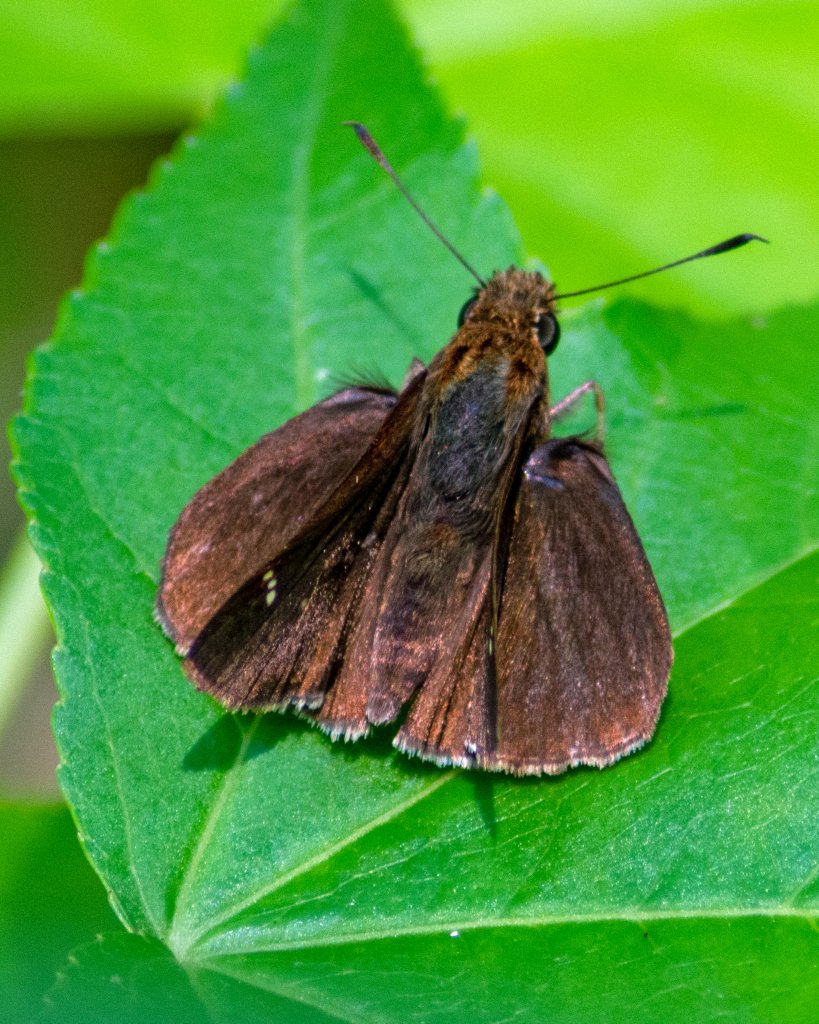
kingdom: Animalia
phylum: Arthropoda
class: Insecta
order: Lepidoptera
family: Hesperiidae
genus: Lerema
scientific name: Lerema accius
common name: Clouded Skipper
